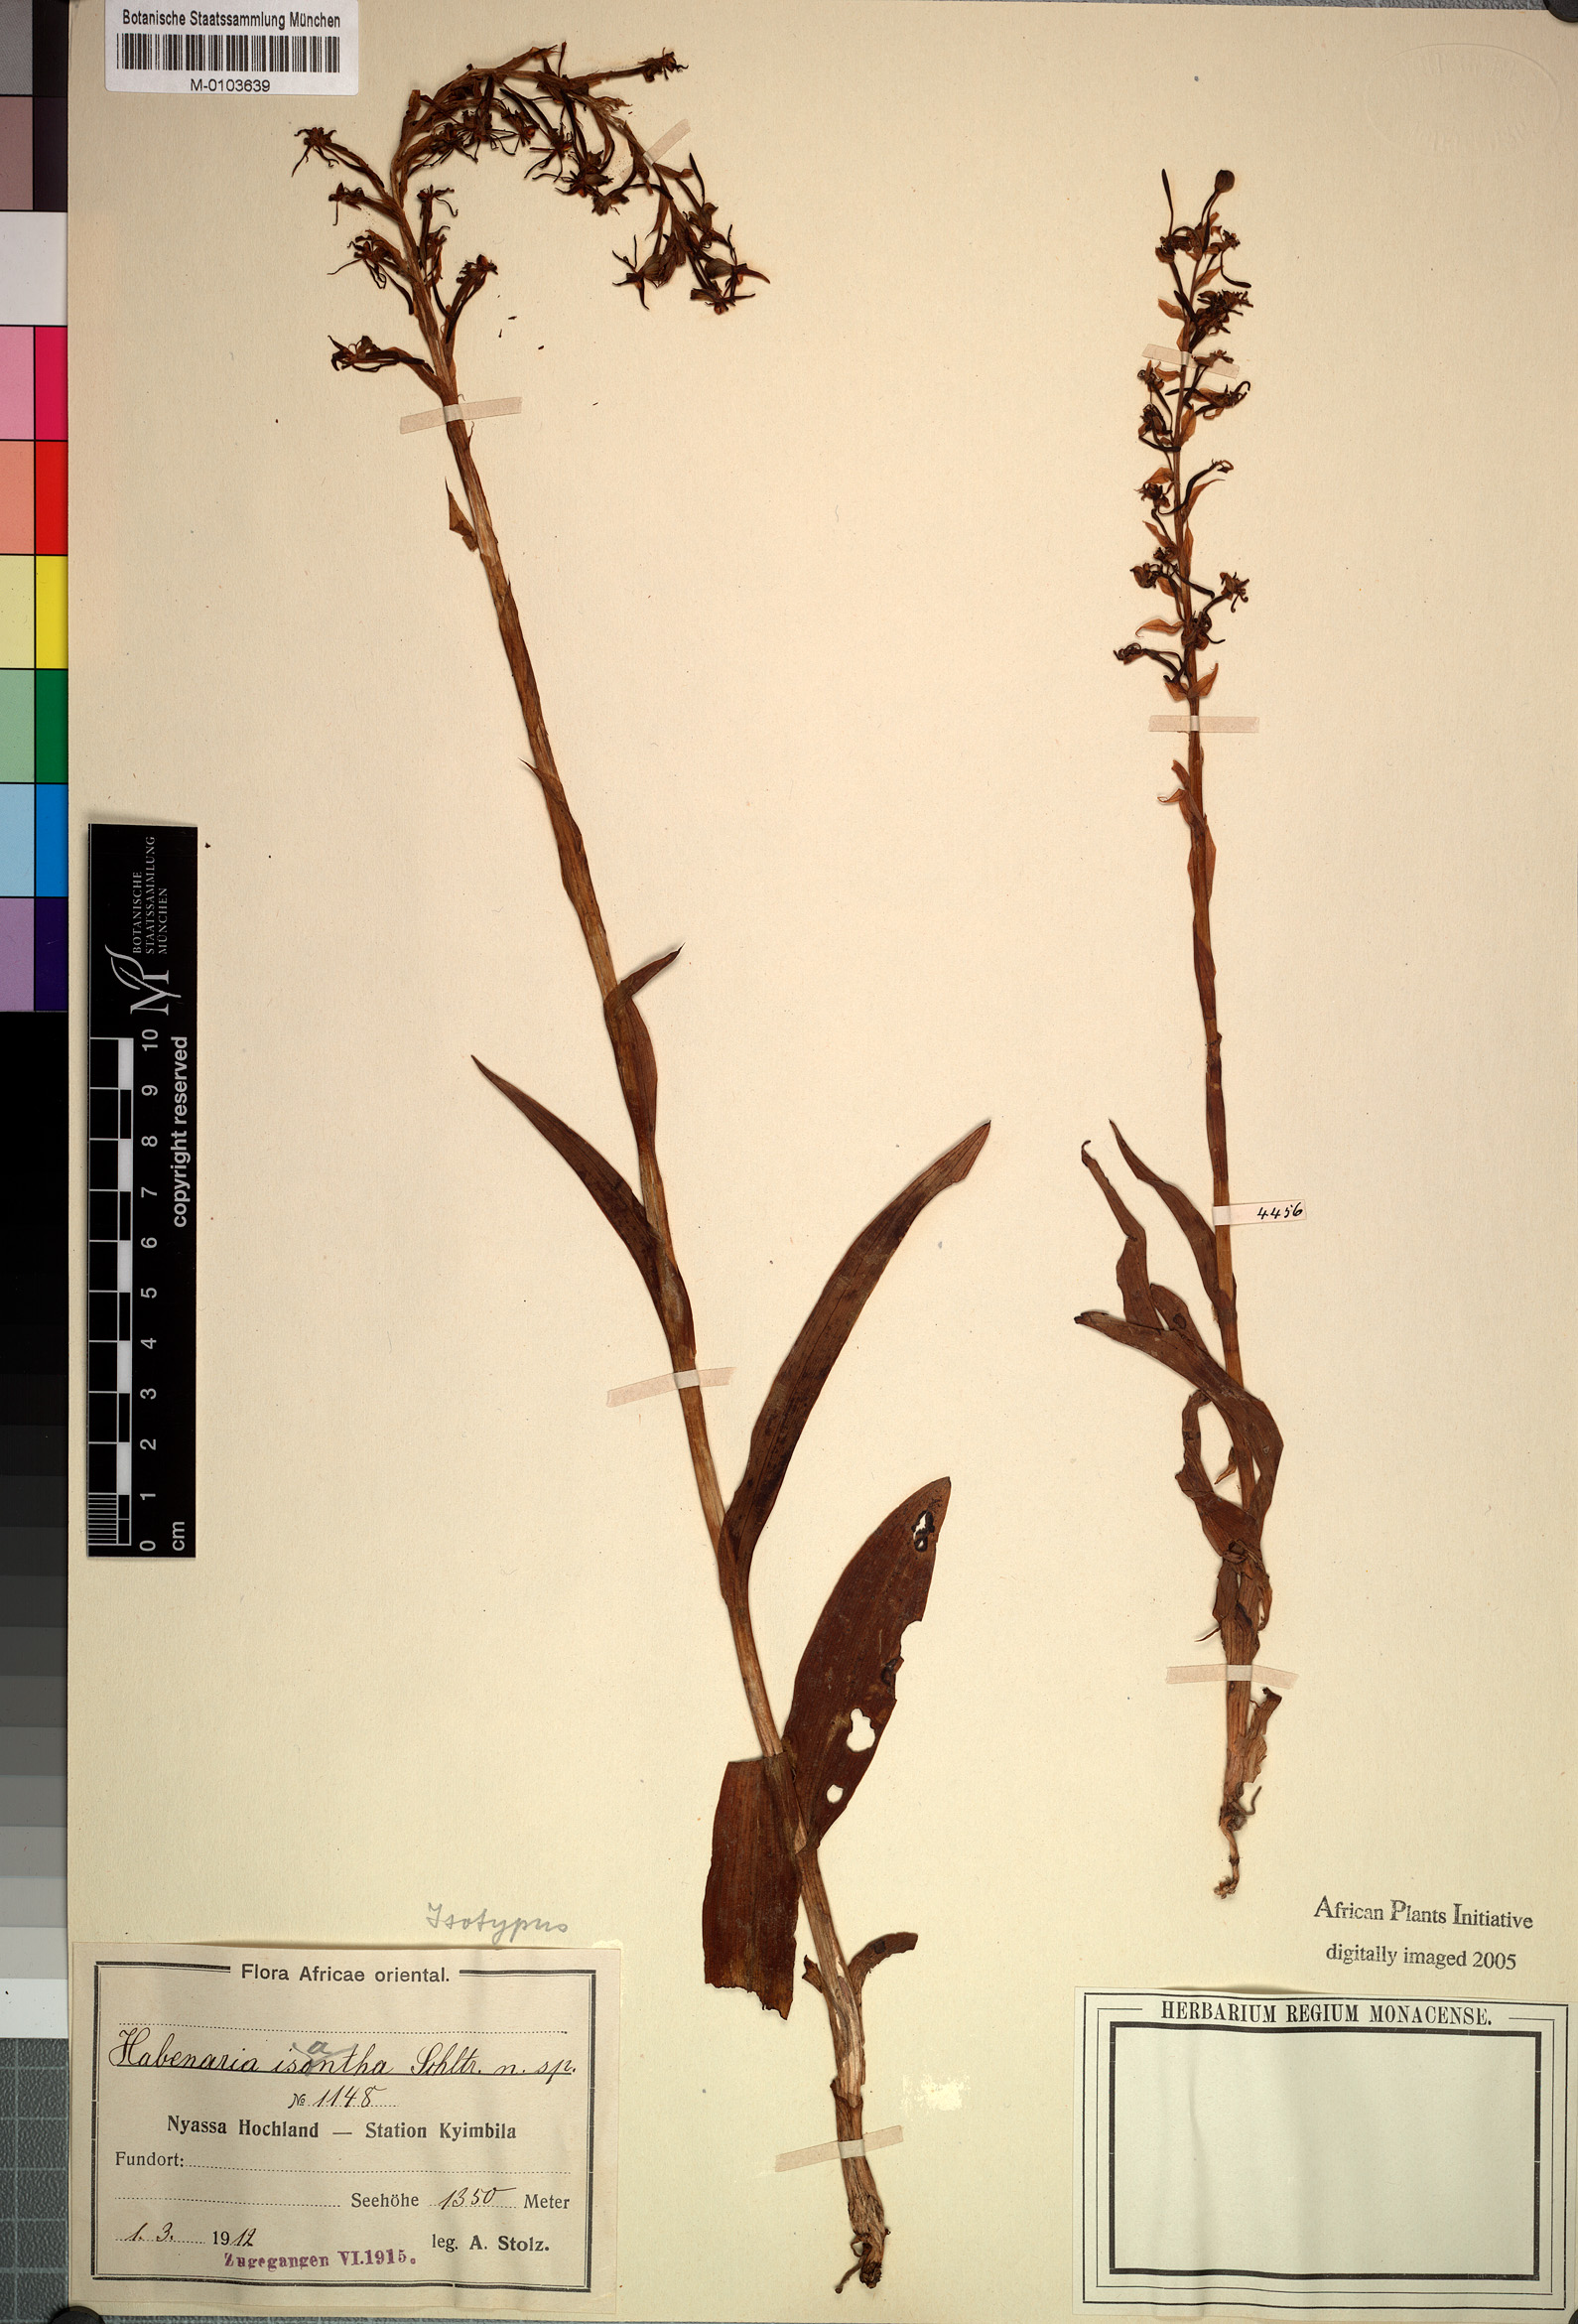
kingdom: Plantae
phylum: Tracheophyta
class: Liliopsida
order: Asparagales
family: Orchidaceae
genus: Habenaria
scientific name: Habenaria isoantha
